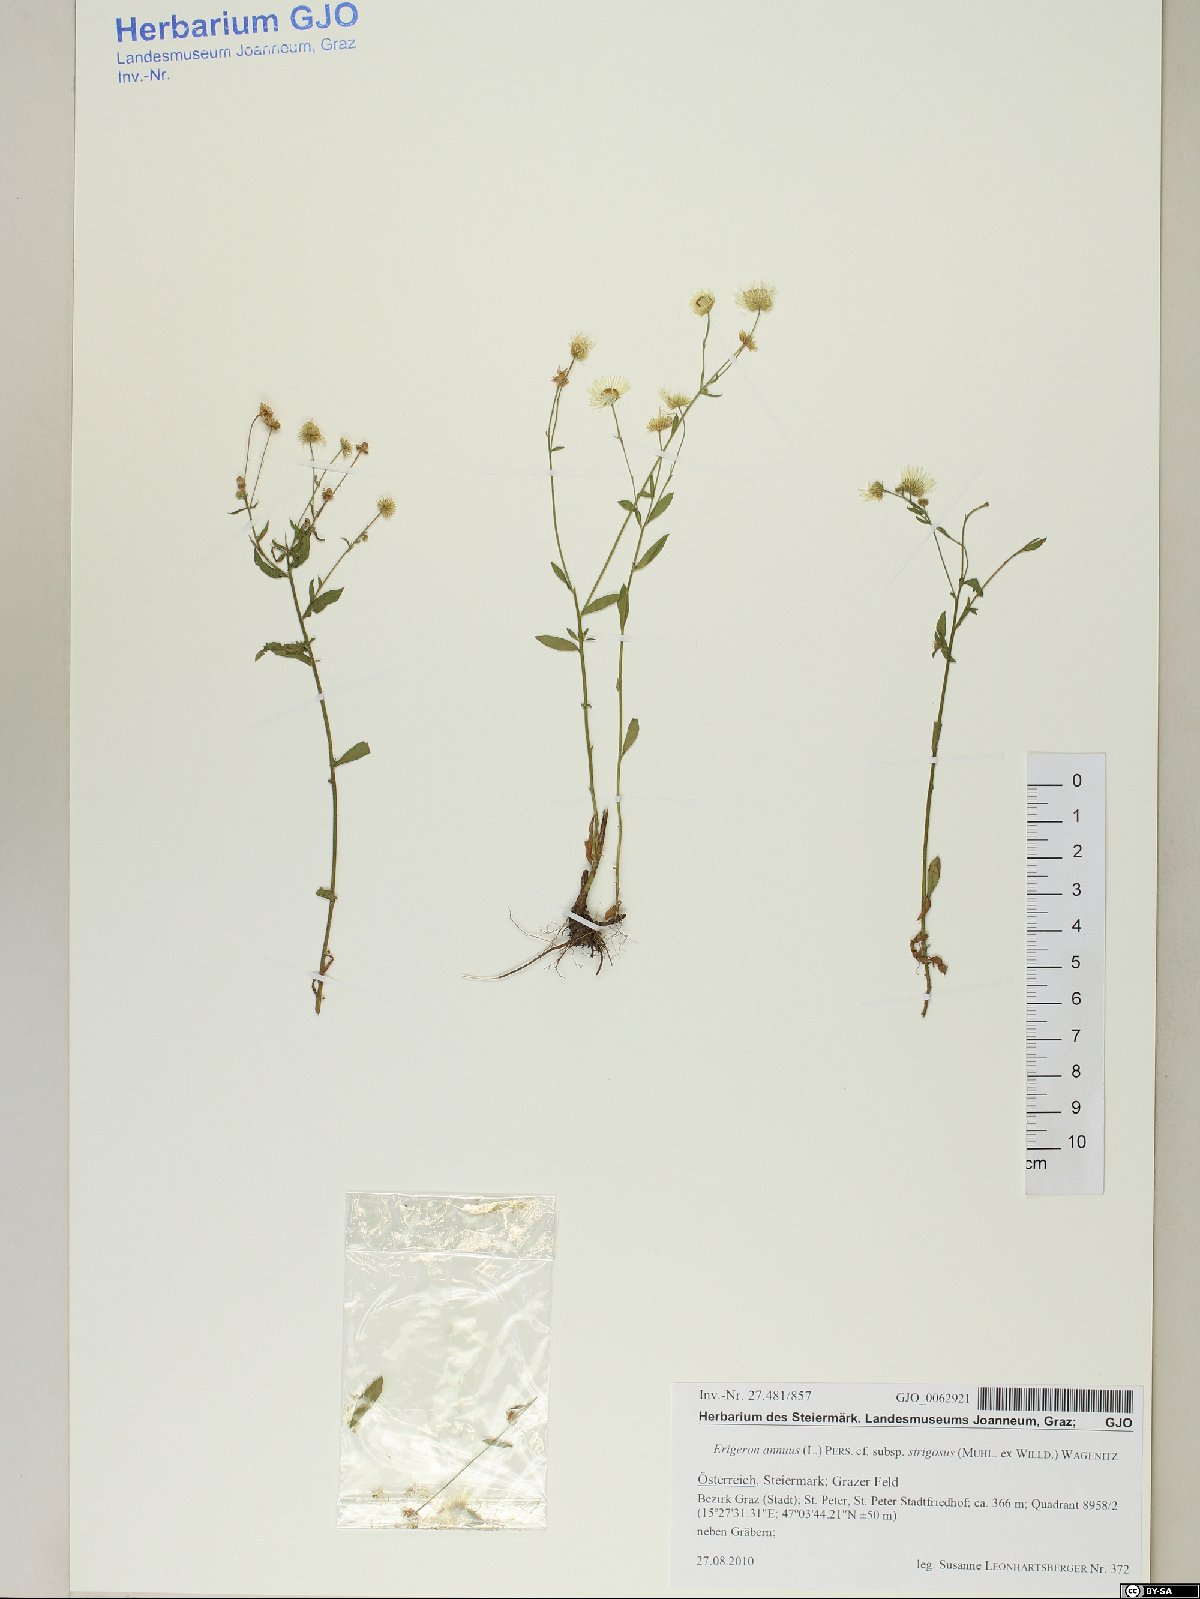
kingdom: Plantae
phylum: Tracheophyta
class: Magnoliopsida
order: Asterales
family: Asteraceae
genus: Erigeron
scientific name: Erigeron strigosus
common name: Common eastern fleabane
